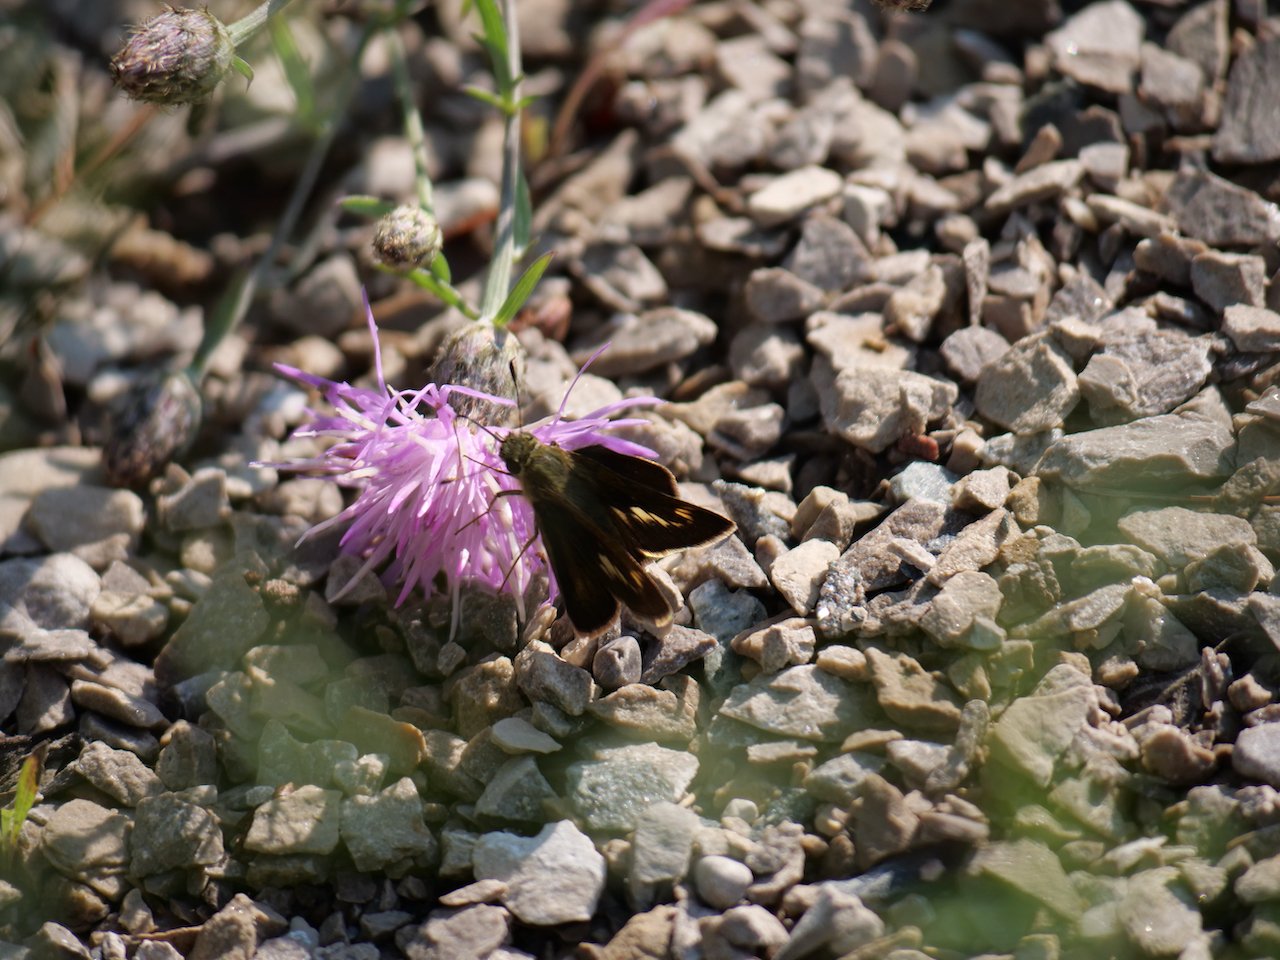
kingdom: Animalia
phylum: Arthropoda
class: Insecta
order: Lepidoptera
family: Hesperiidae
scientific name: Hesperiidae
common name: Skippers
